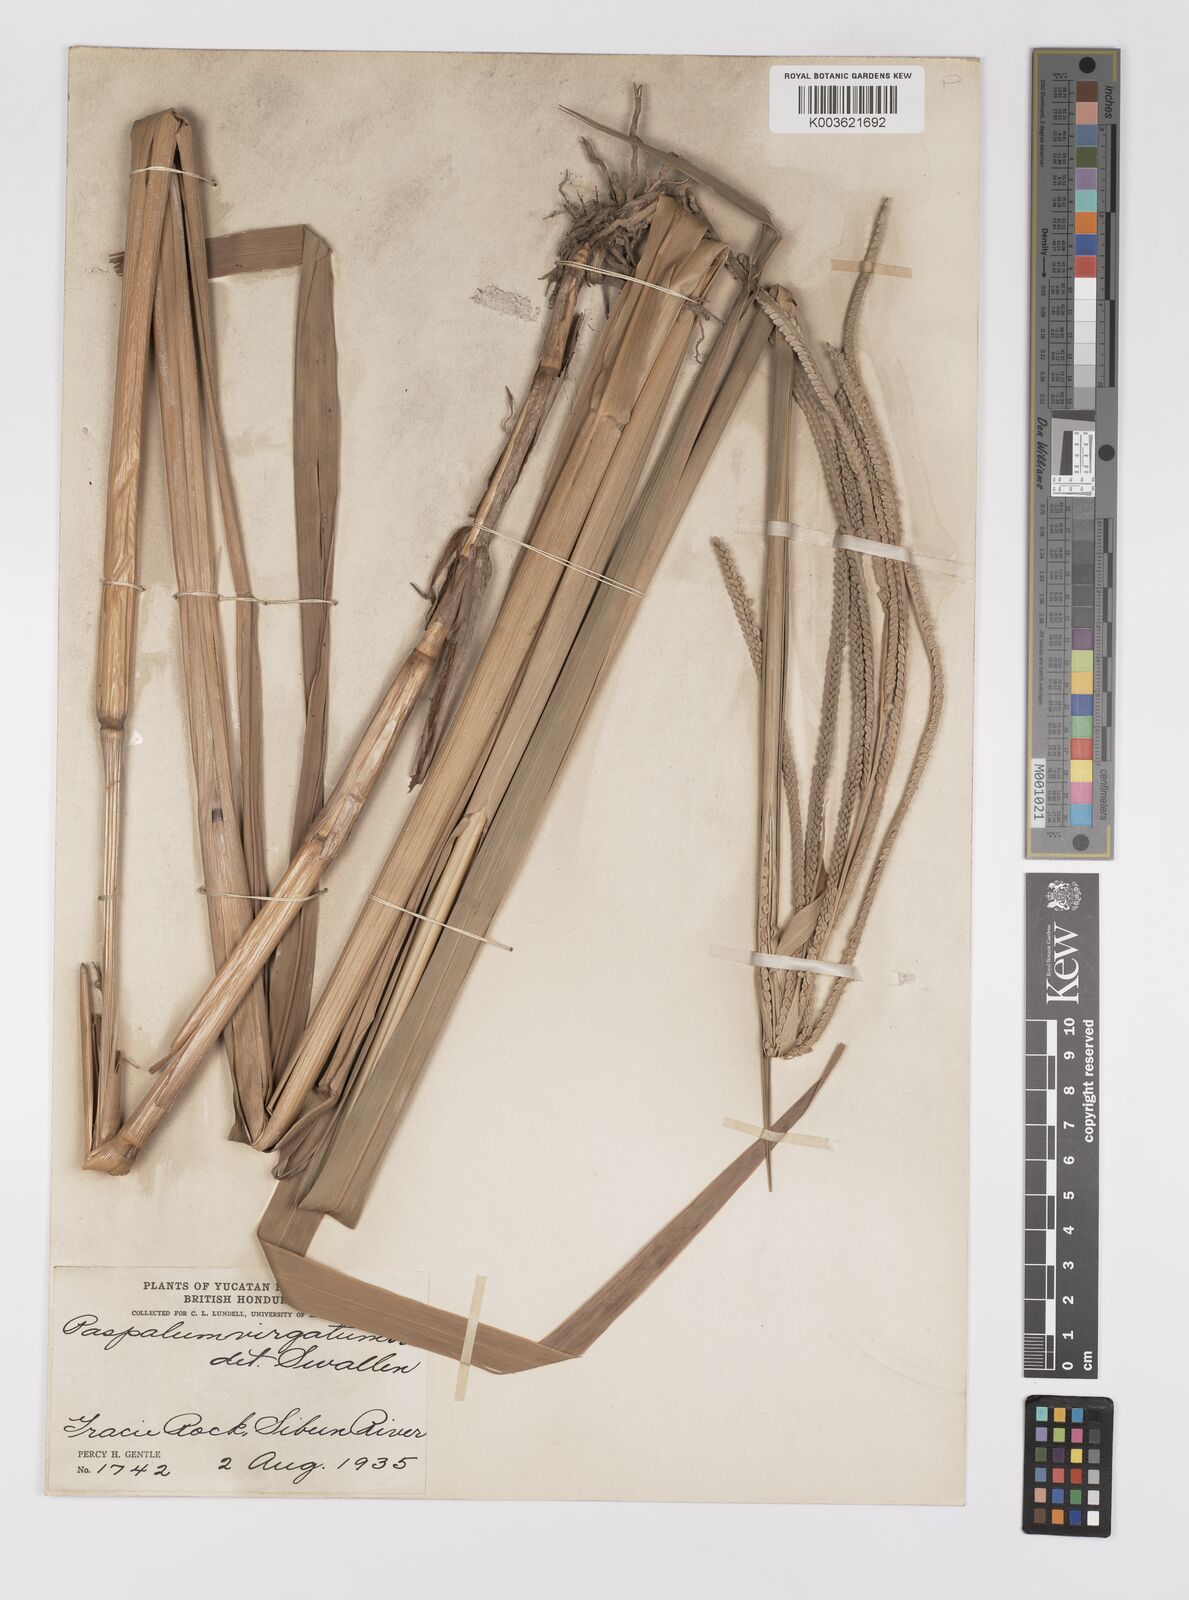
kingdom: Plantae
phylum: Tracheophyta
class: Liliopsida
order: Poales
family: Poaceae
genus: Paspalum
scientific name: Paspalum virgatum
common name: Talquezal
